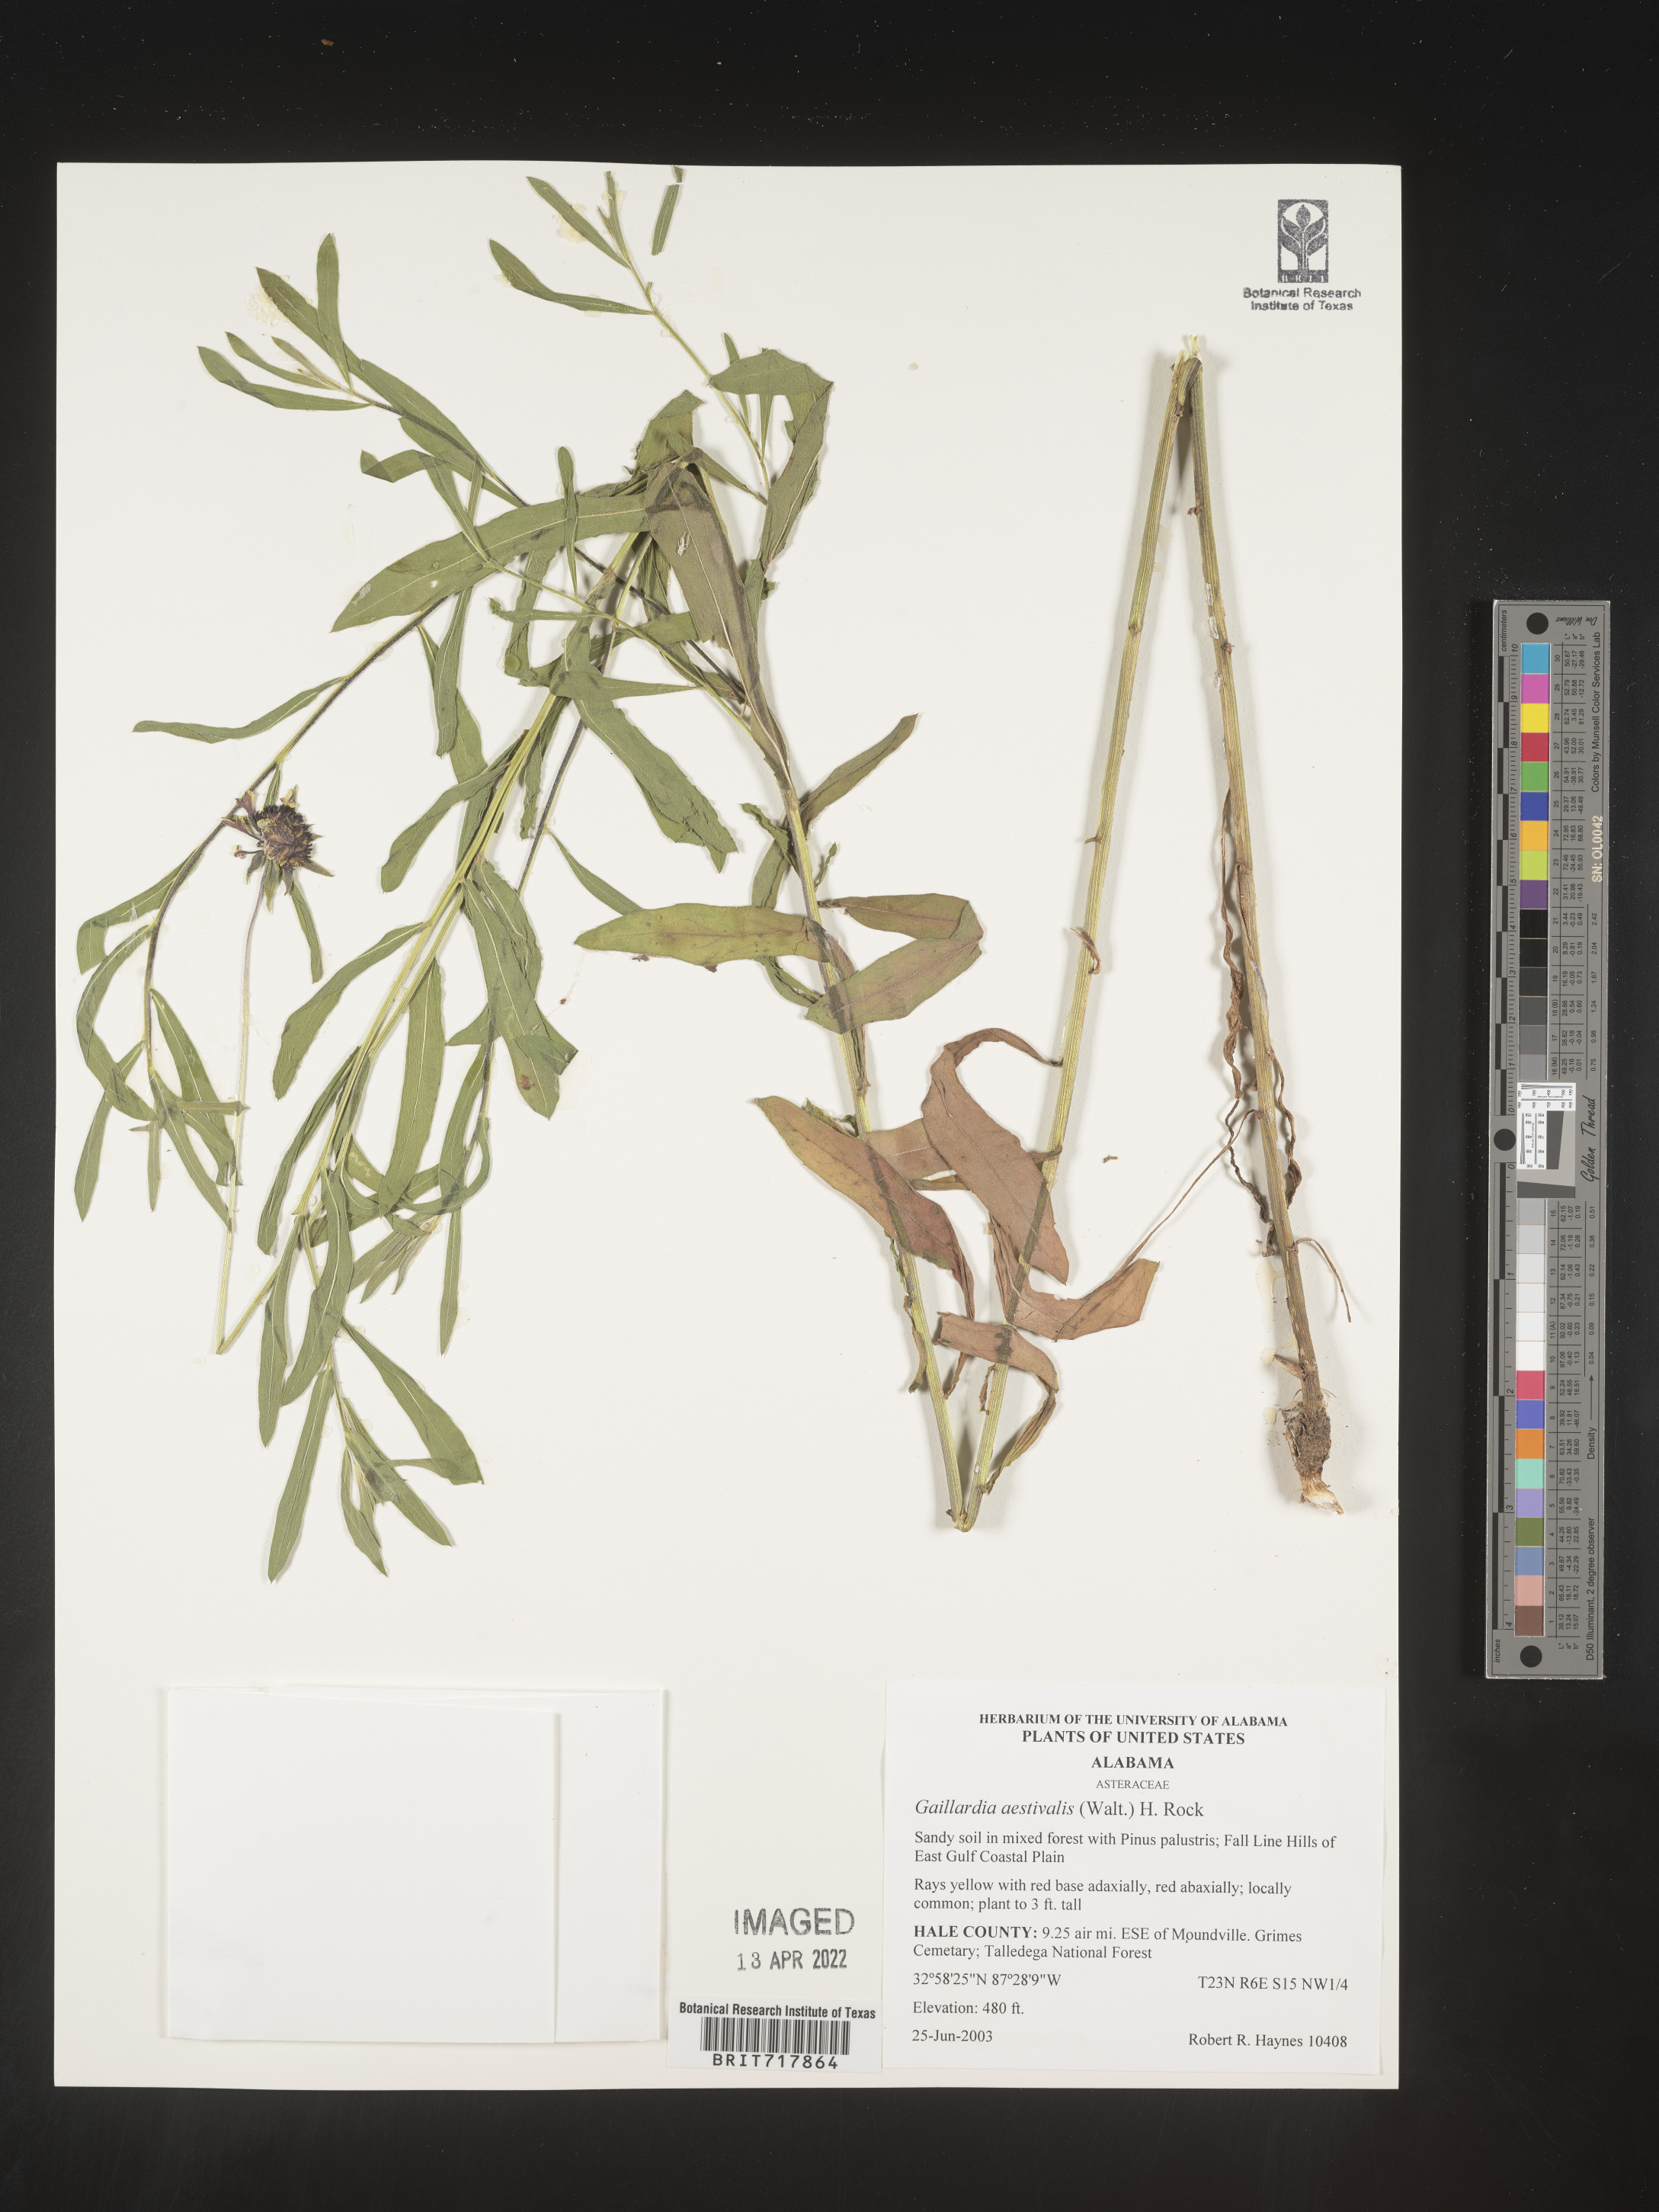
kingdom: Plantae
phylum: Tracheophyta
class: Magnoliopsida
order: Asterales
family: Asteraceae
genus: Gaillardia
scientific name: Gaillardia aestivalis
